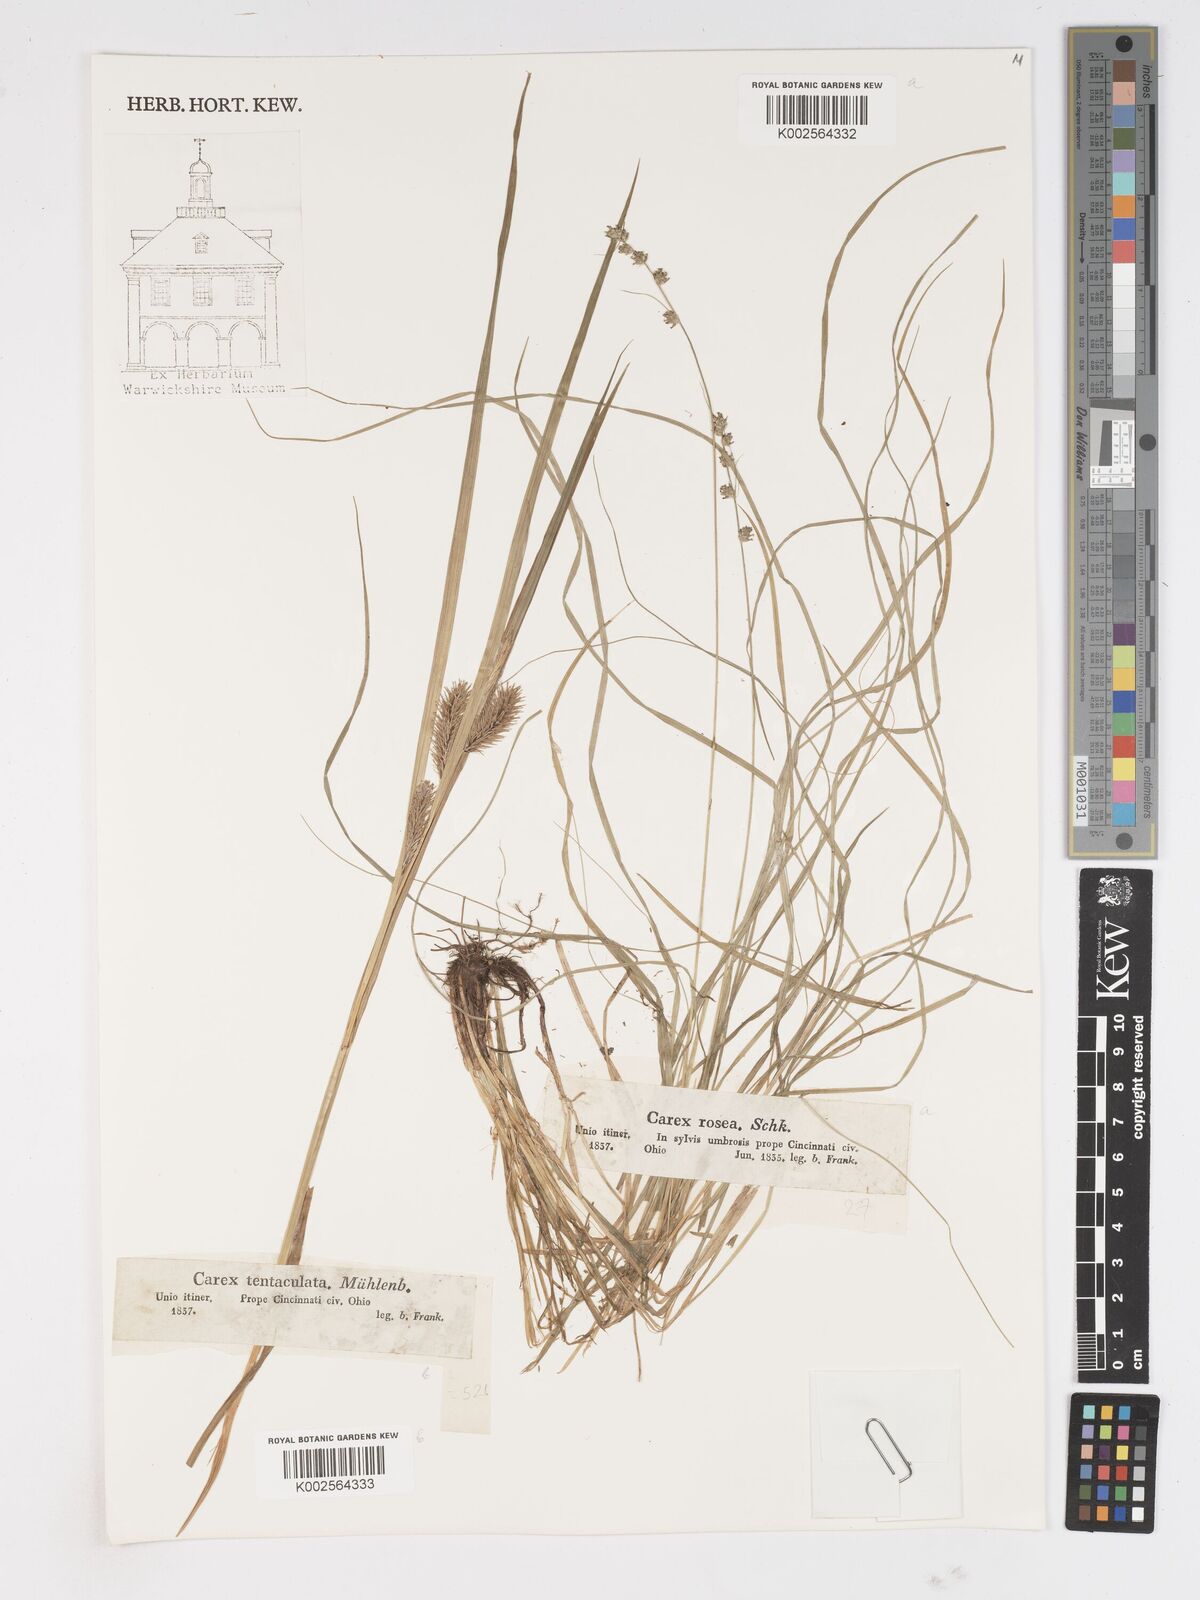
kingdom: Plantae
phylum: Tracheophyta
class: Liliopsida
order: Poales
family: Cyperaceae
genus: Carex
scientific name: Carex lurida
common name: Sallow sedge
